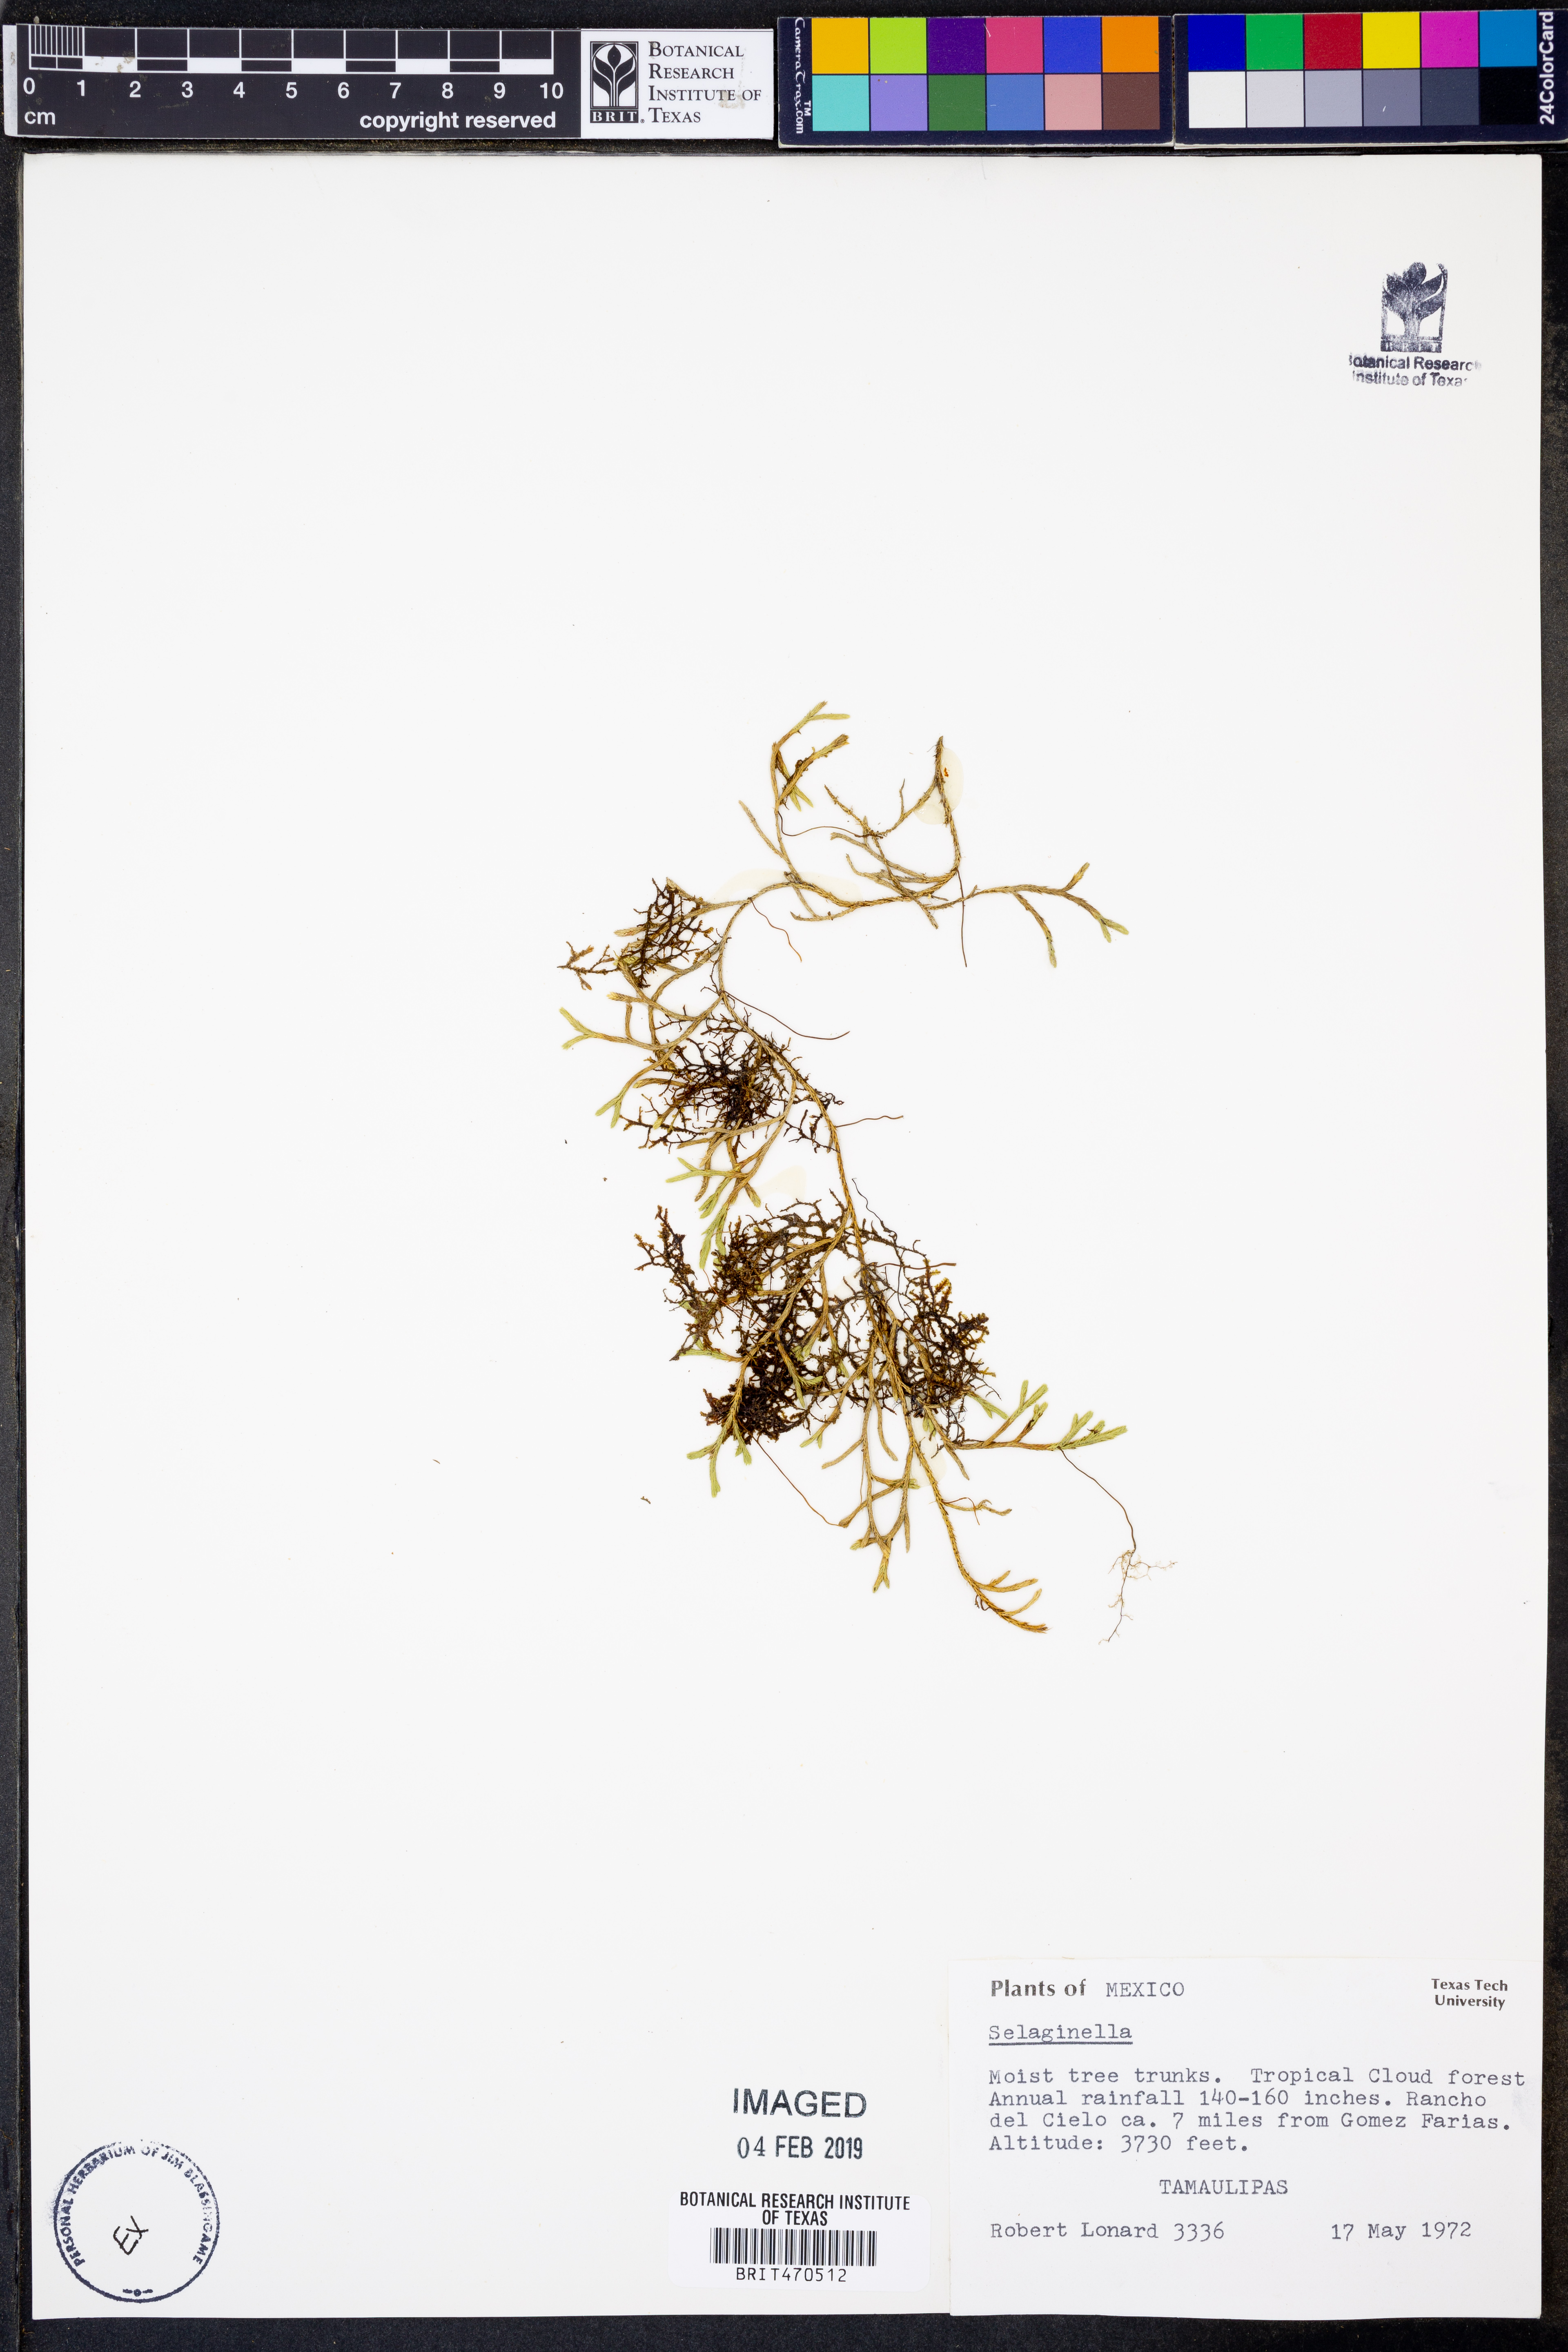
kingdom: Plantae
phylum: Tracheophyta
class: Lycopodiopsida
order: Selaginellales
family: Selaginellaceae
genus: Selaginella
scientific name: Selaginella
